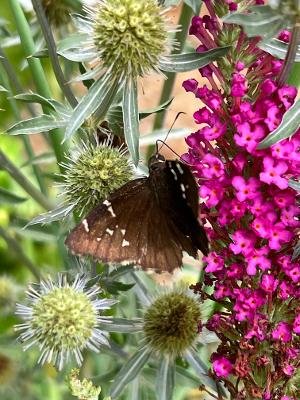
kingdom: Animalia
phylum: Arthropoda
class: Insecta
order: Lepidoptera
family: Hesperiidae
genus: Autochton
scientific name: Autochton
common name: Southern Cloudywing
